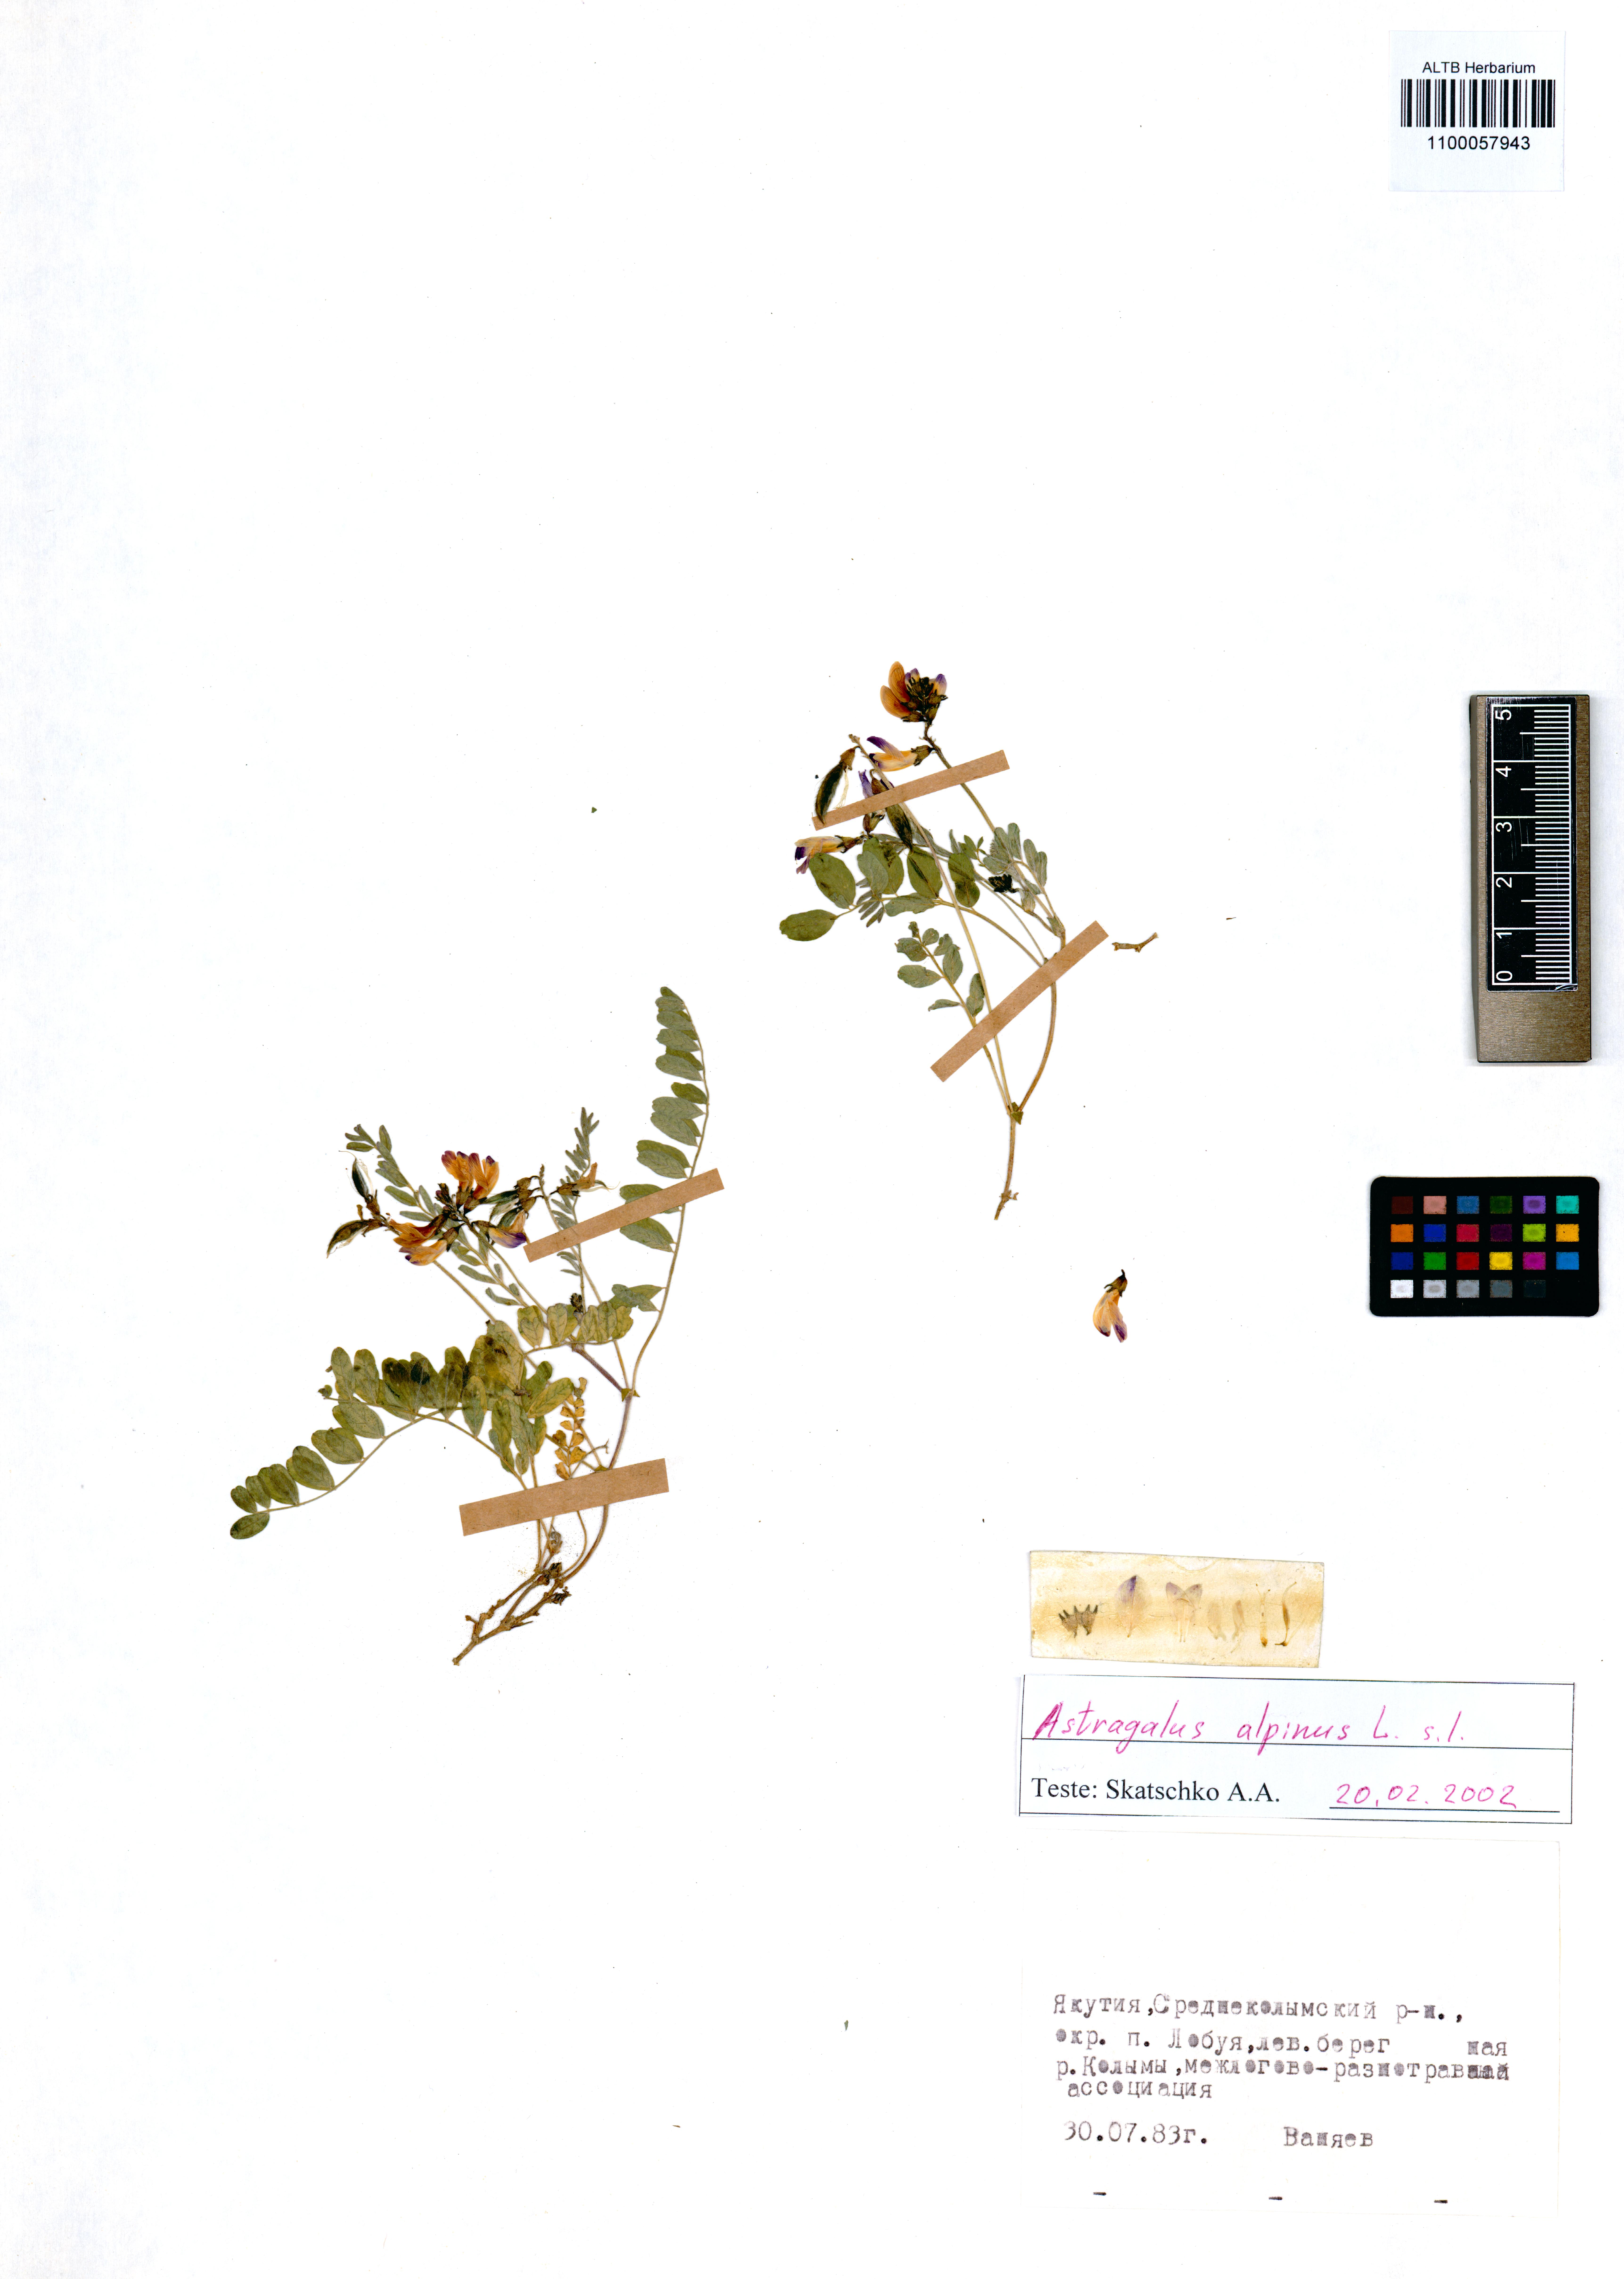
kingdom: Plantae
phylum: Tracheophyta
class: Magnoliopsida
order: Fabales
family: Fabaceae
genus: Astragalus
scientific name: Astragalus alpinus
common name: Alpine milk-vetch
